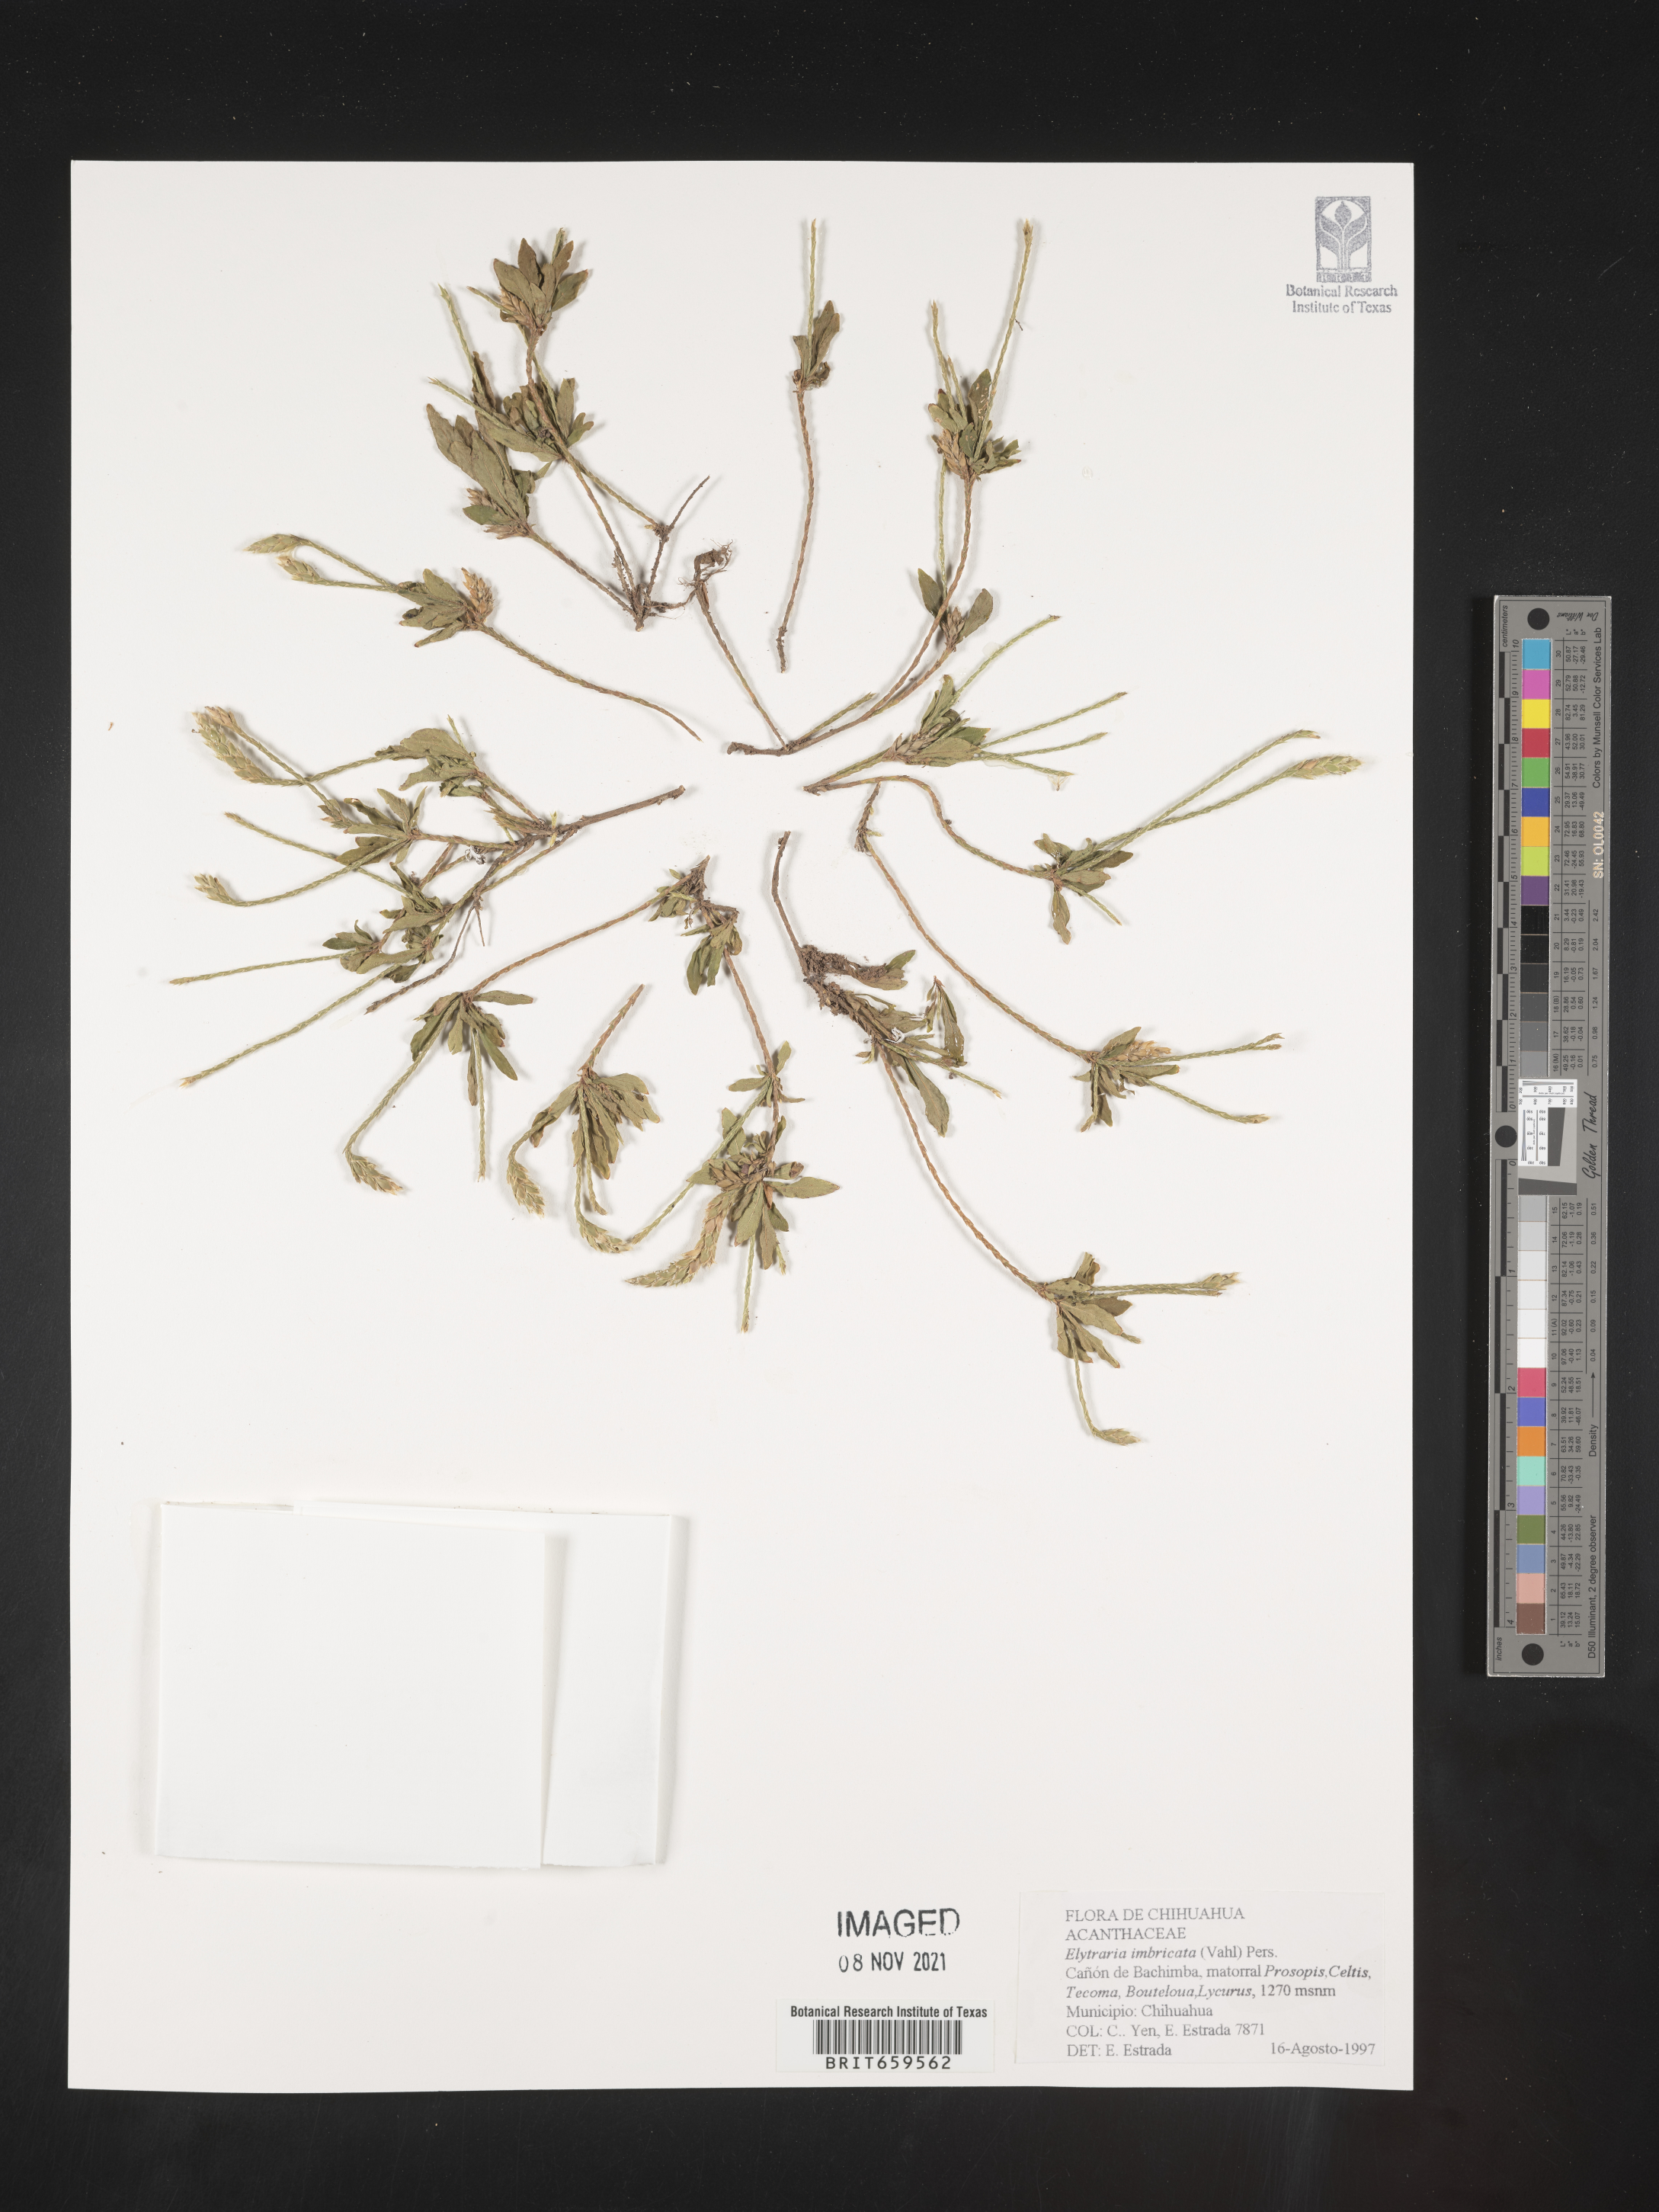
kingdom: Plantae
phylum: Tracheophyta
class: Magnoliopsida
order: Lamiales
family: Acanthaceae
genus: Elytraria
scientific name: Elytraria imbricata
